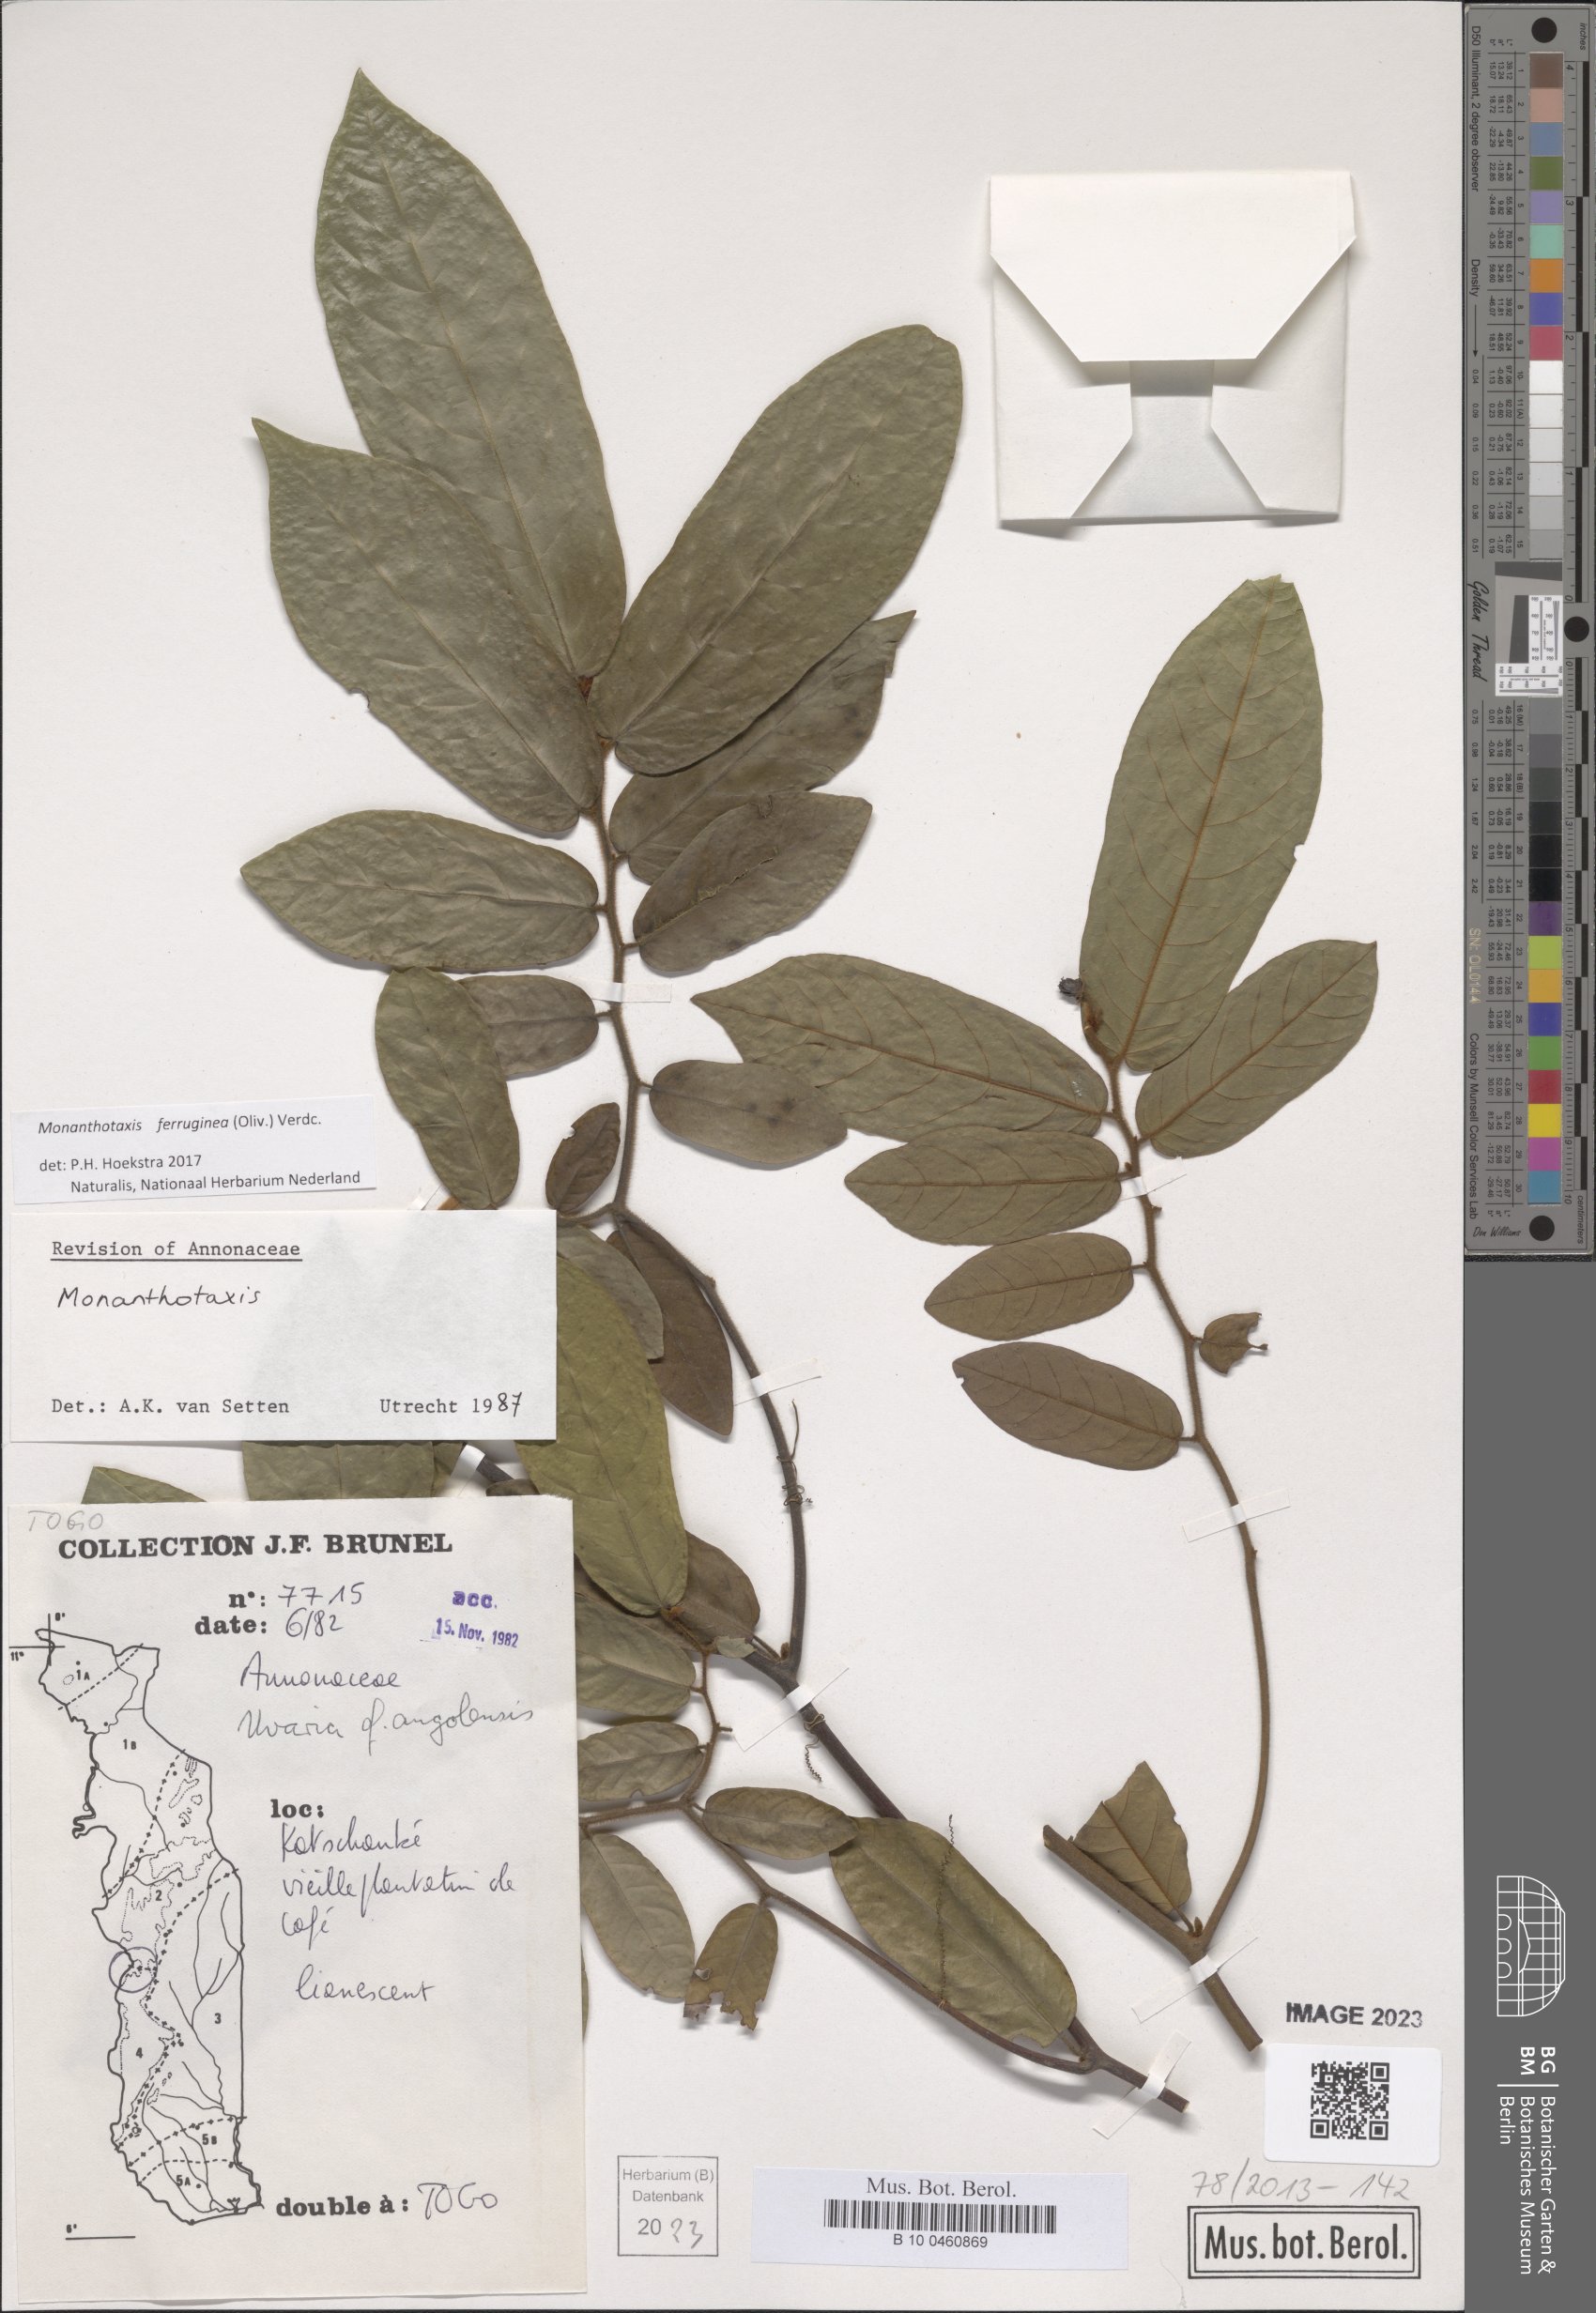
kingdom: Plantae
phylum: Tracheophyta
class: Magnoliopsida
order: Magnoliales
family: Annonaceae
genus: Monanthotaxis
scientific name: Monanthotaxis ferruginea
